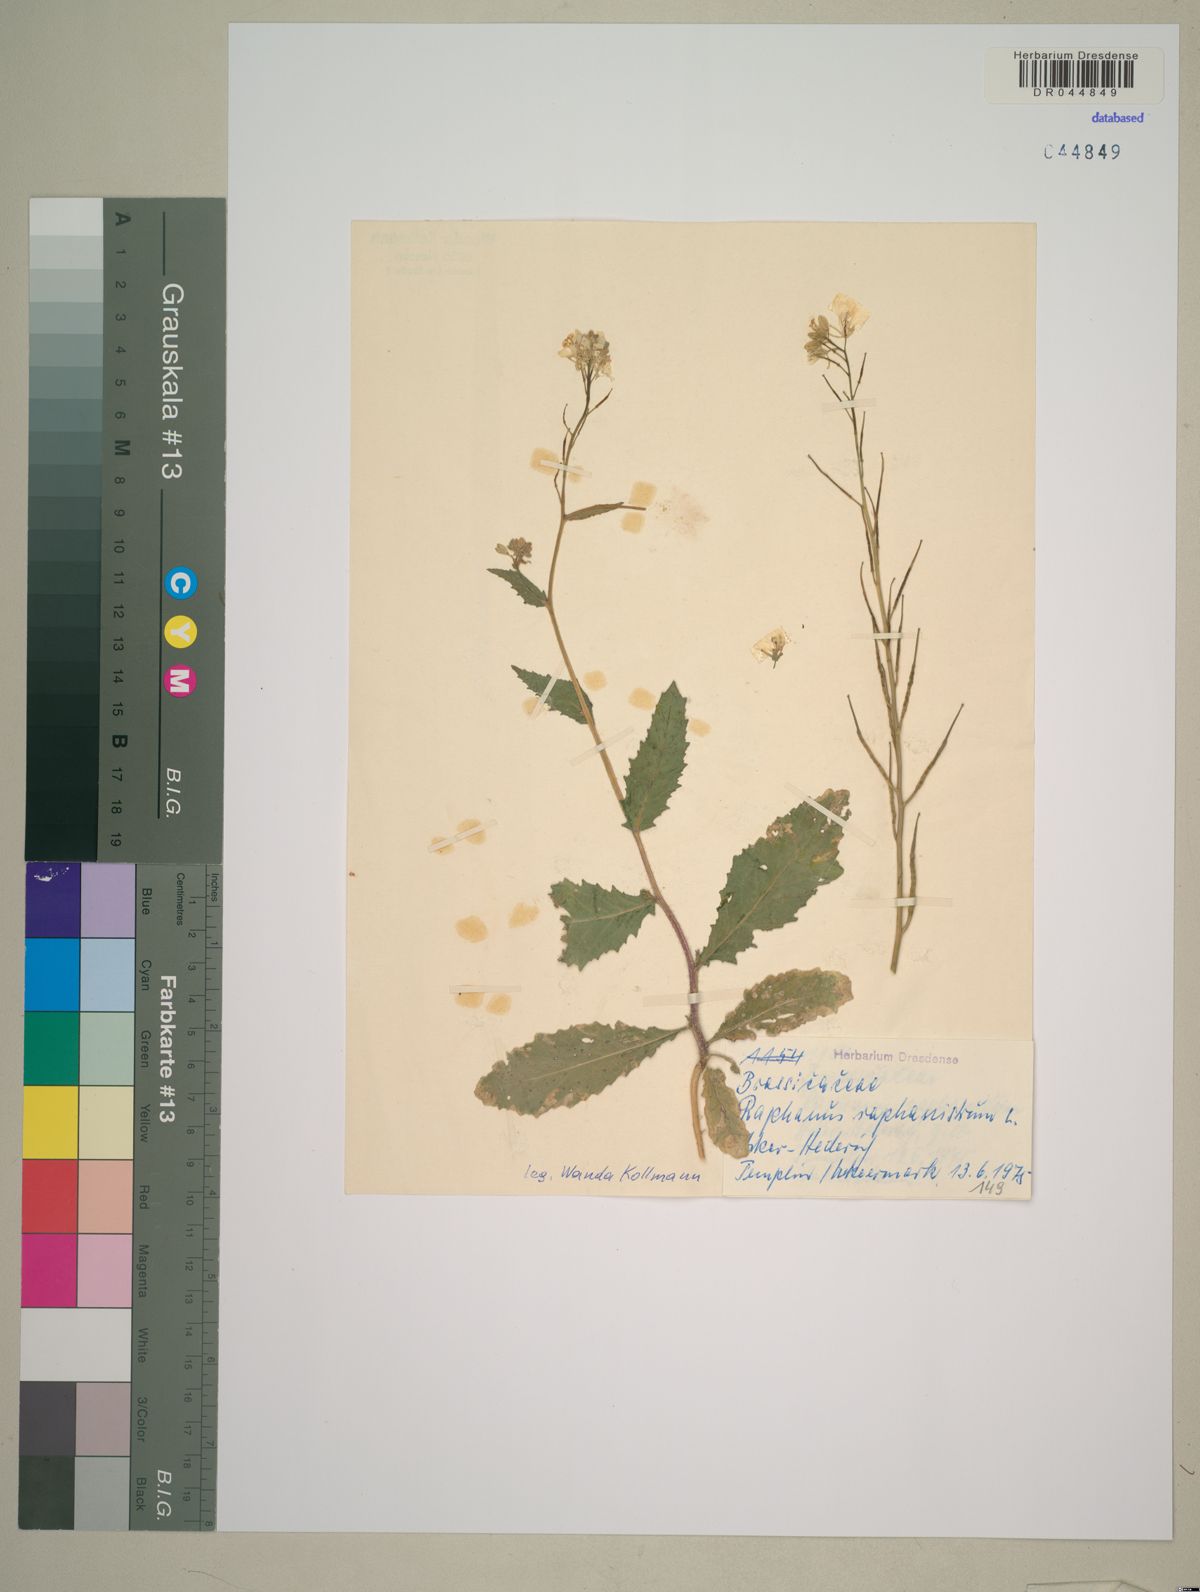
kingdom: Plantae
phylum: Tracheophyta
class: Magnoliopsida
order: Brassicales
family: Brassicaceae
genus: Raphanus
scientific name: Raphanus raphanistrum
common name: Wild radish
